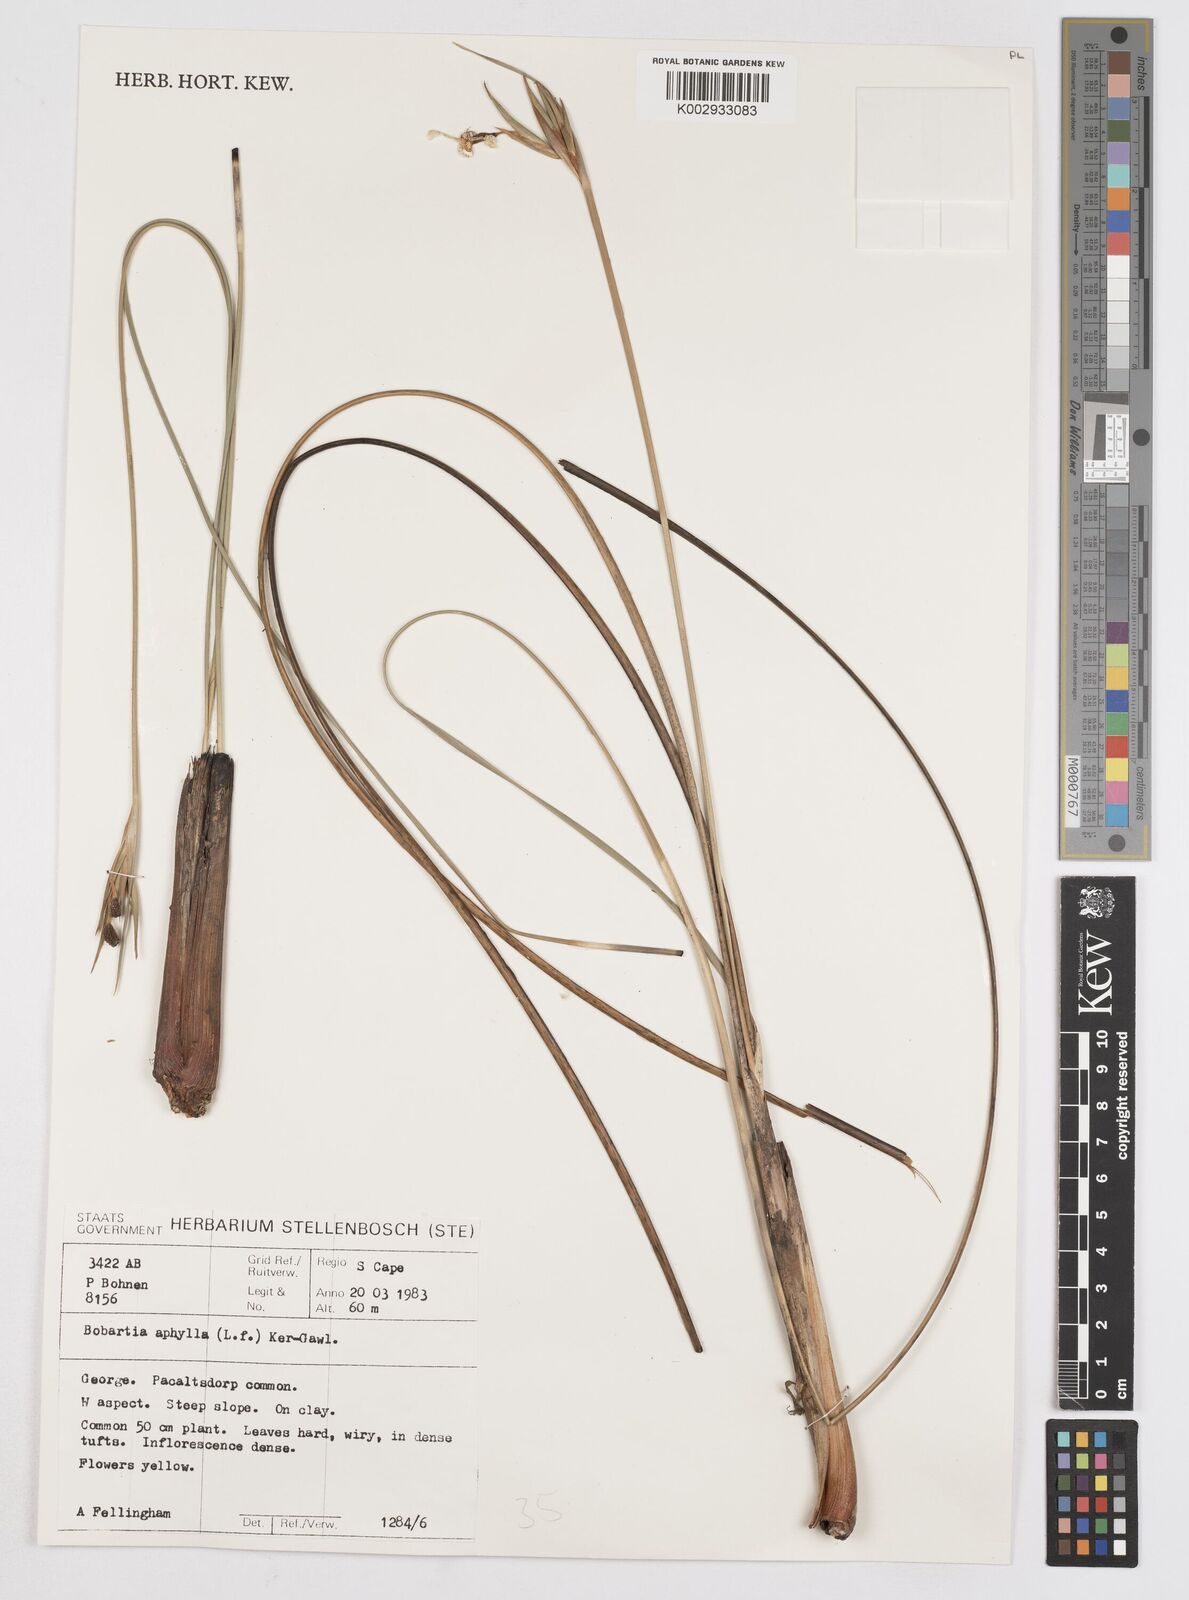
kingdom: Plantae
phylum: Tracheophyta
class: Liliopsida
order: Asparagales
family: Iridaceae
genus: Bobartia
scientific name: Bobartia aphylla
